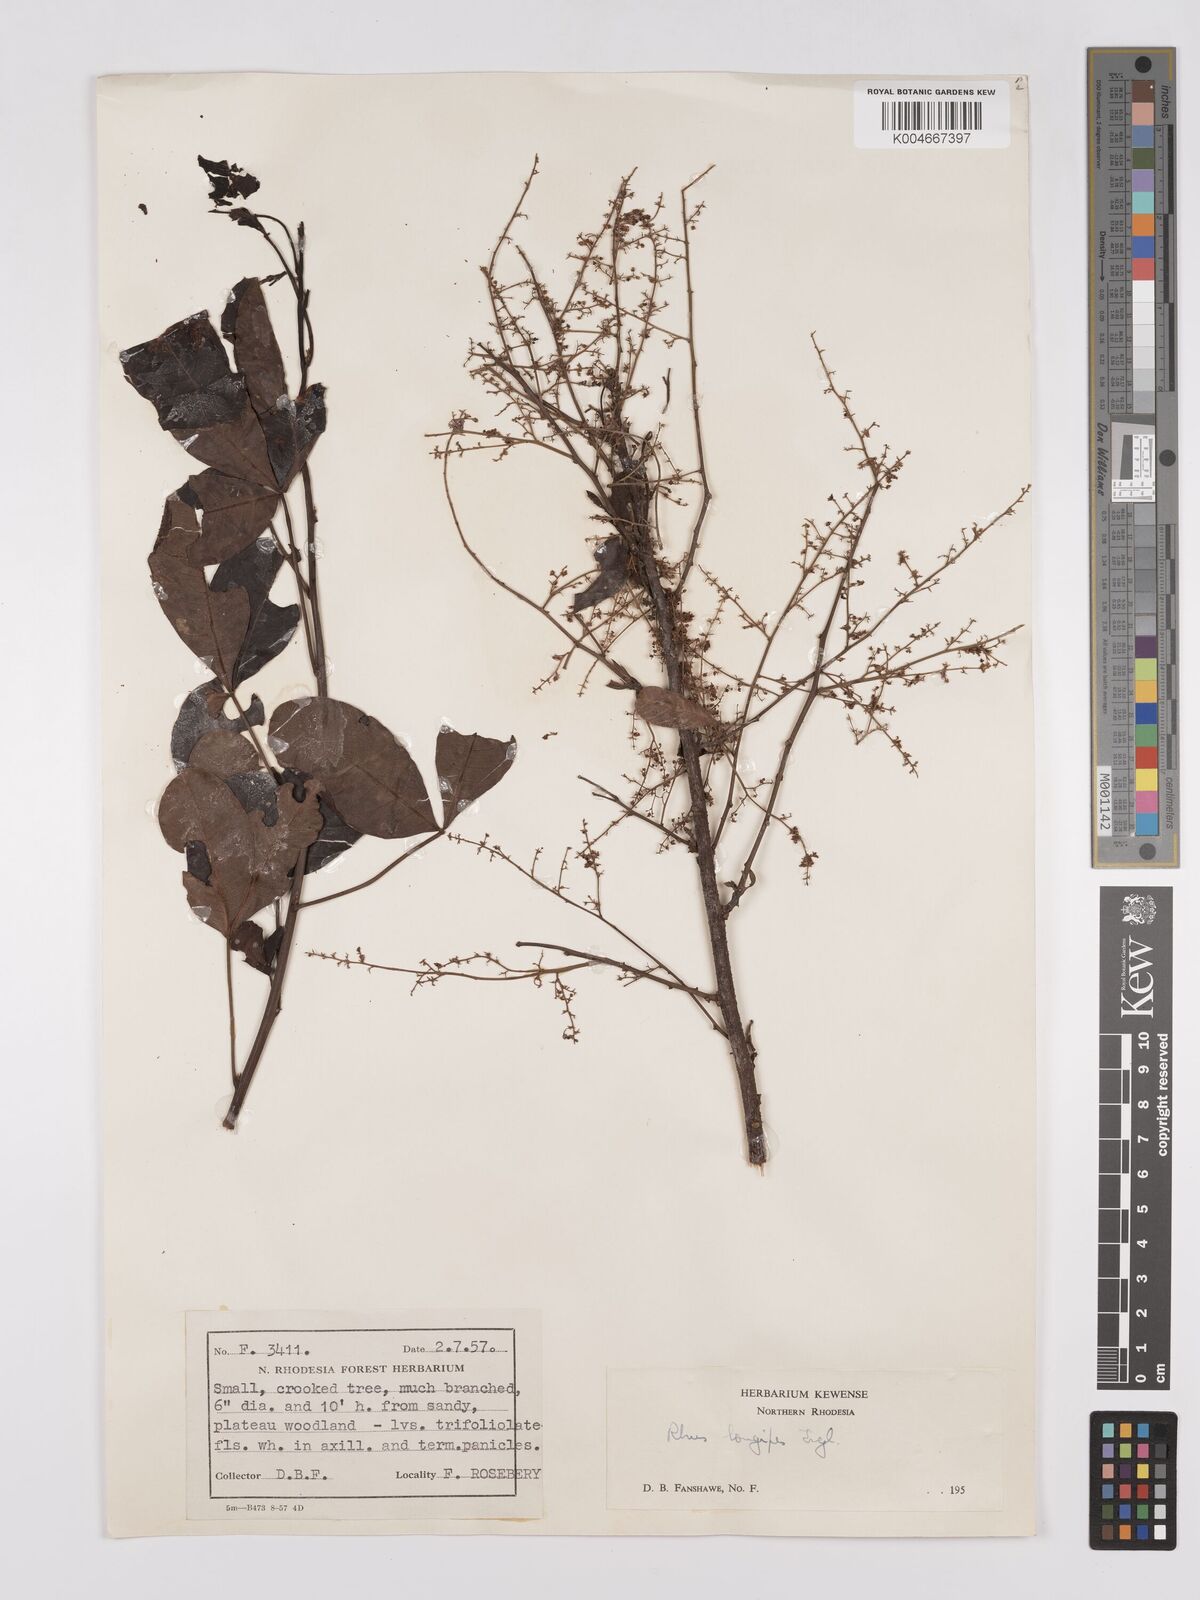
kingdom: Plantae
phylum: Tracheophyta
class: Magnoliopsida
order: Sapindales
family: Anacardiaceae
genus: Searsia
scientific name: Searsia longipes
